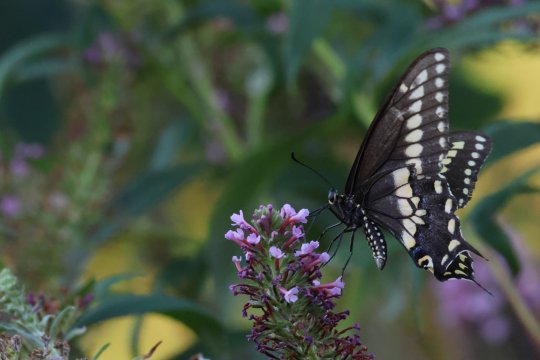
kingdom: Animalia
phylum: Arthropoda
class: Insecta
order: Lepidoptera
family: Papilionidae
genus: Papilio
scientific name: Papilio polyxenes
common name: Black Swallowtail
